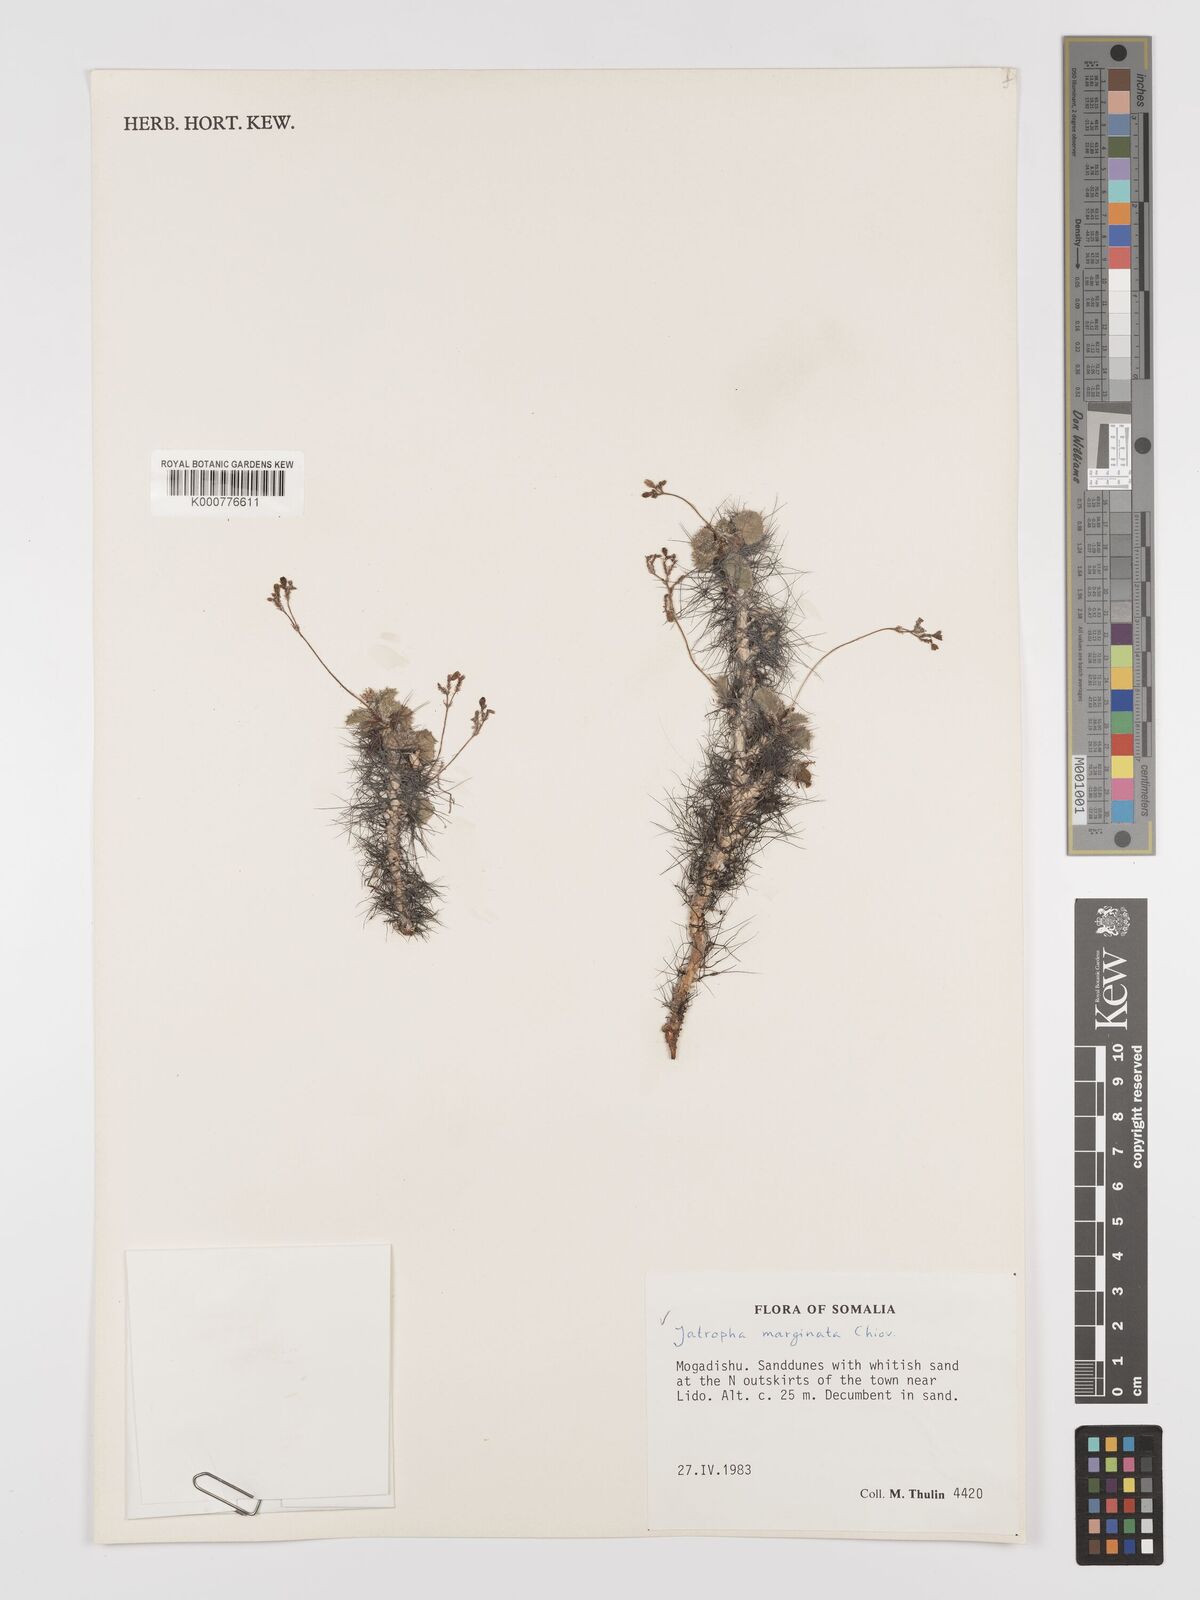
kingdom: Plantae
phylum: Tracheophyta
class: Magnoliopsida
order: Malpighiales
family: Euphorbiaceae
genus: Jatropha
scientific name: Jatropha
